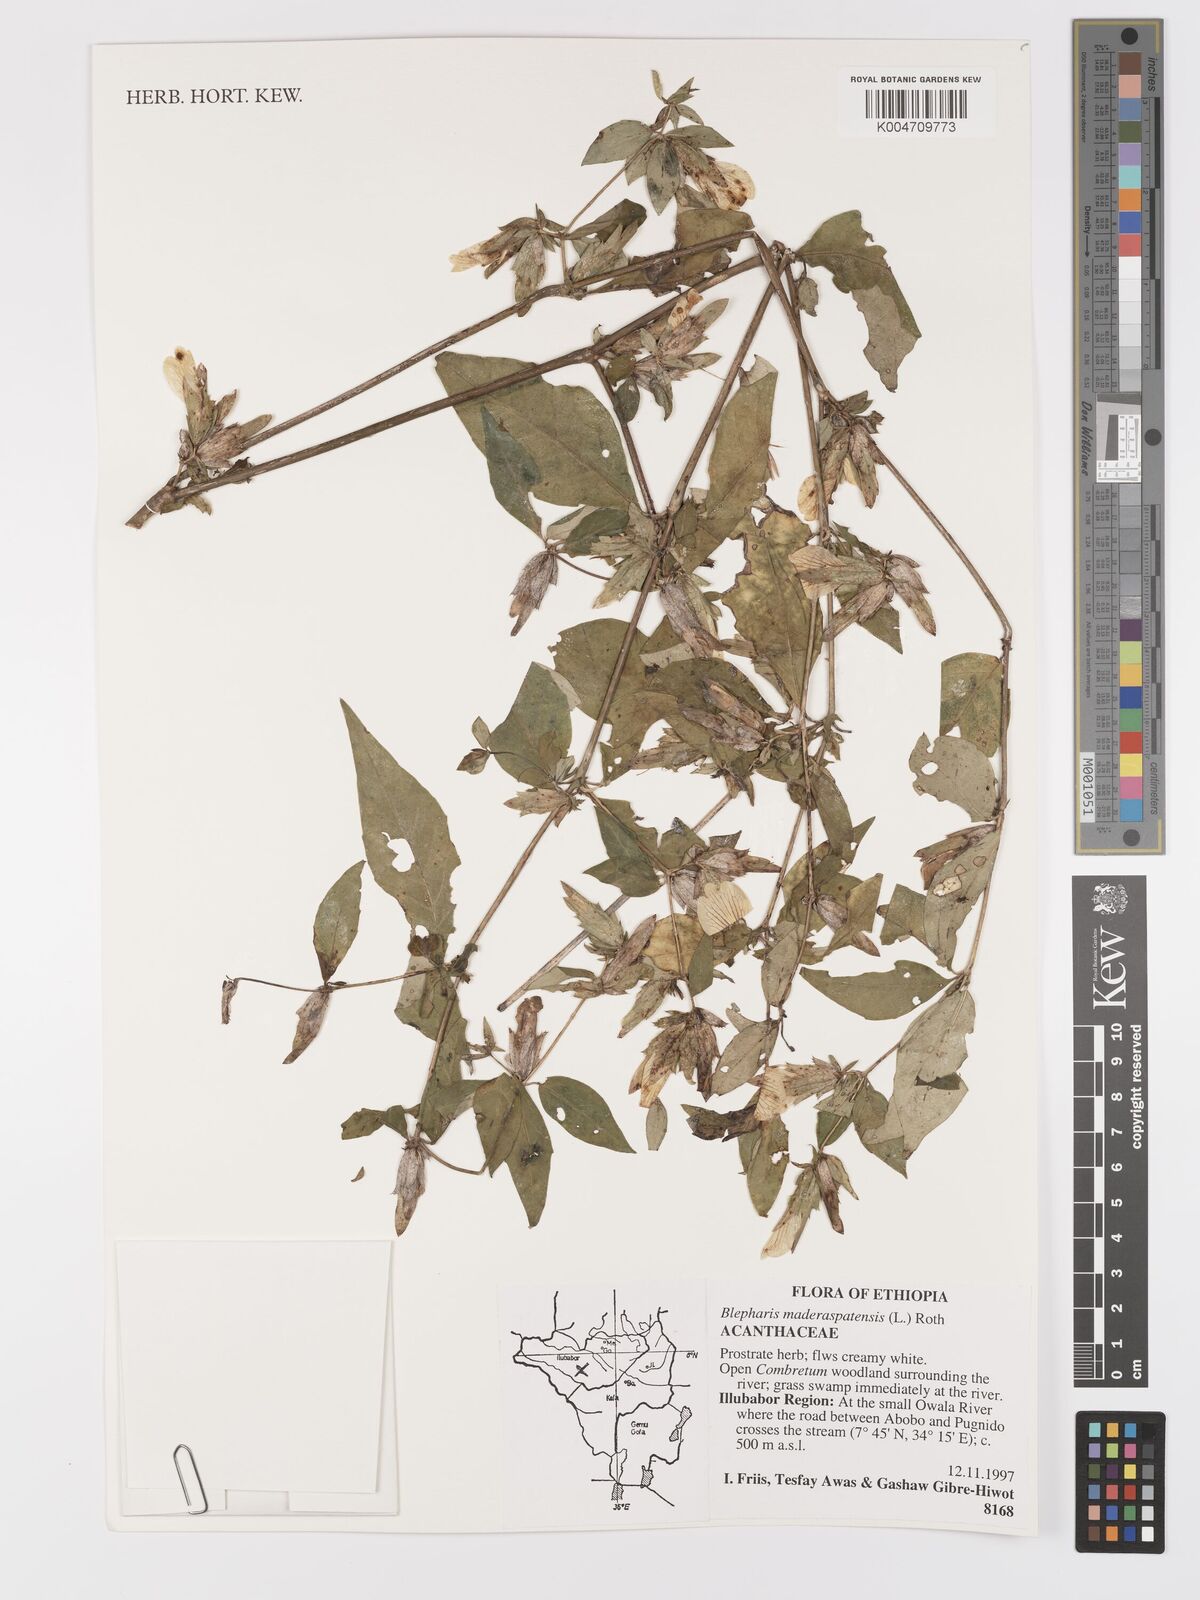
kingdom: Plantae
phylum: Tracheophyta
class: Magnoliopsida
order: Lamiales
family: Acanthaceae
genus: Blepharis
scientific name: Blepharis maderaspatensis
